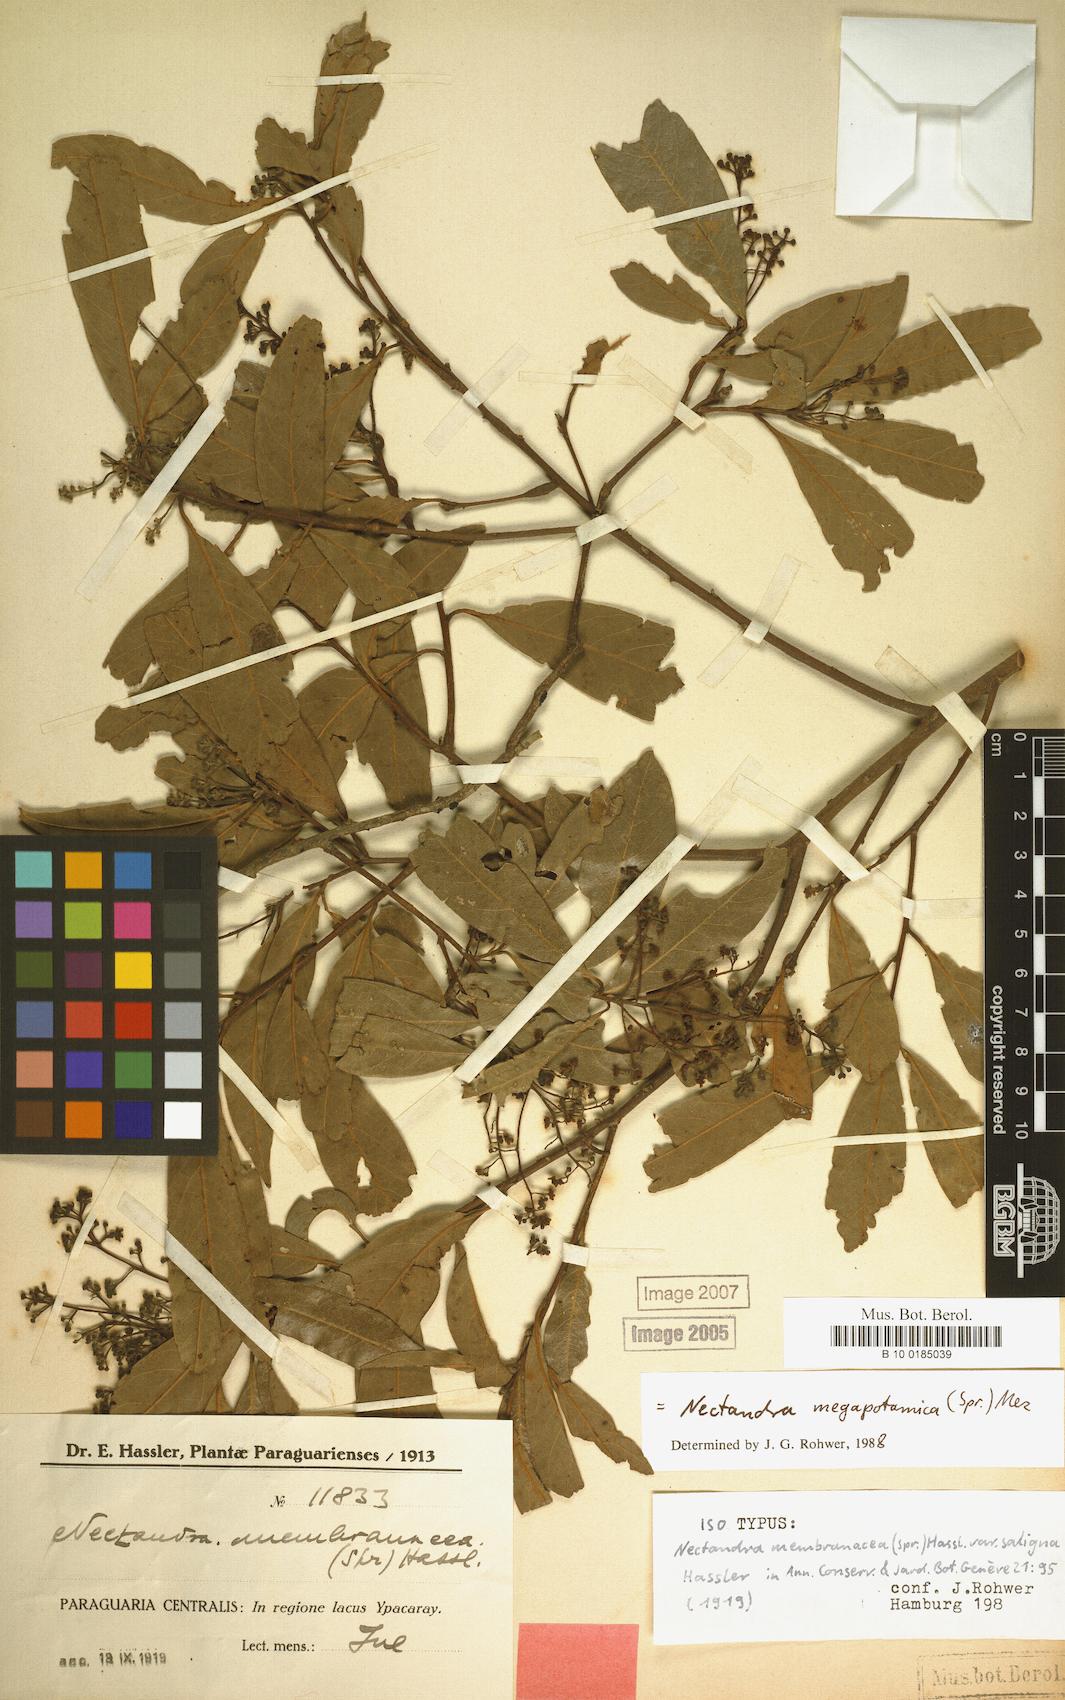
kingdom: Plantae
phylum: Tracheophyta
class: Magnoliopsida
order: Laurales
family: Lauraceae
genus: Nectandra
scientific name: Nectandra megapotamica
